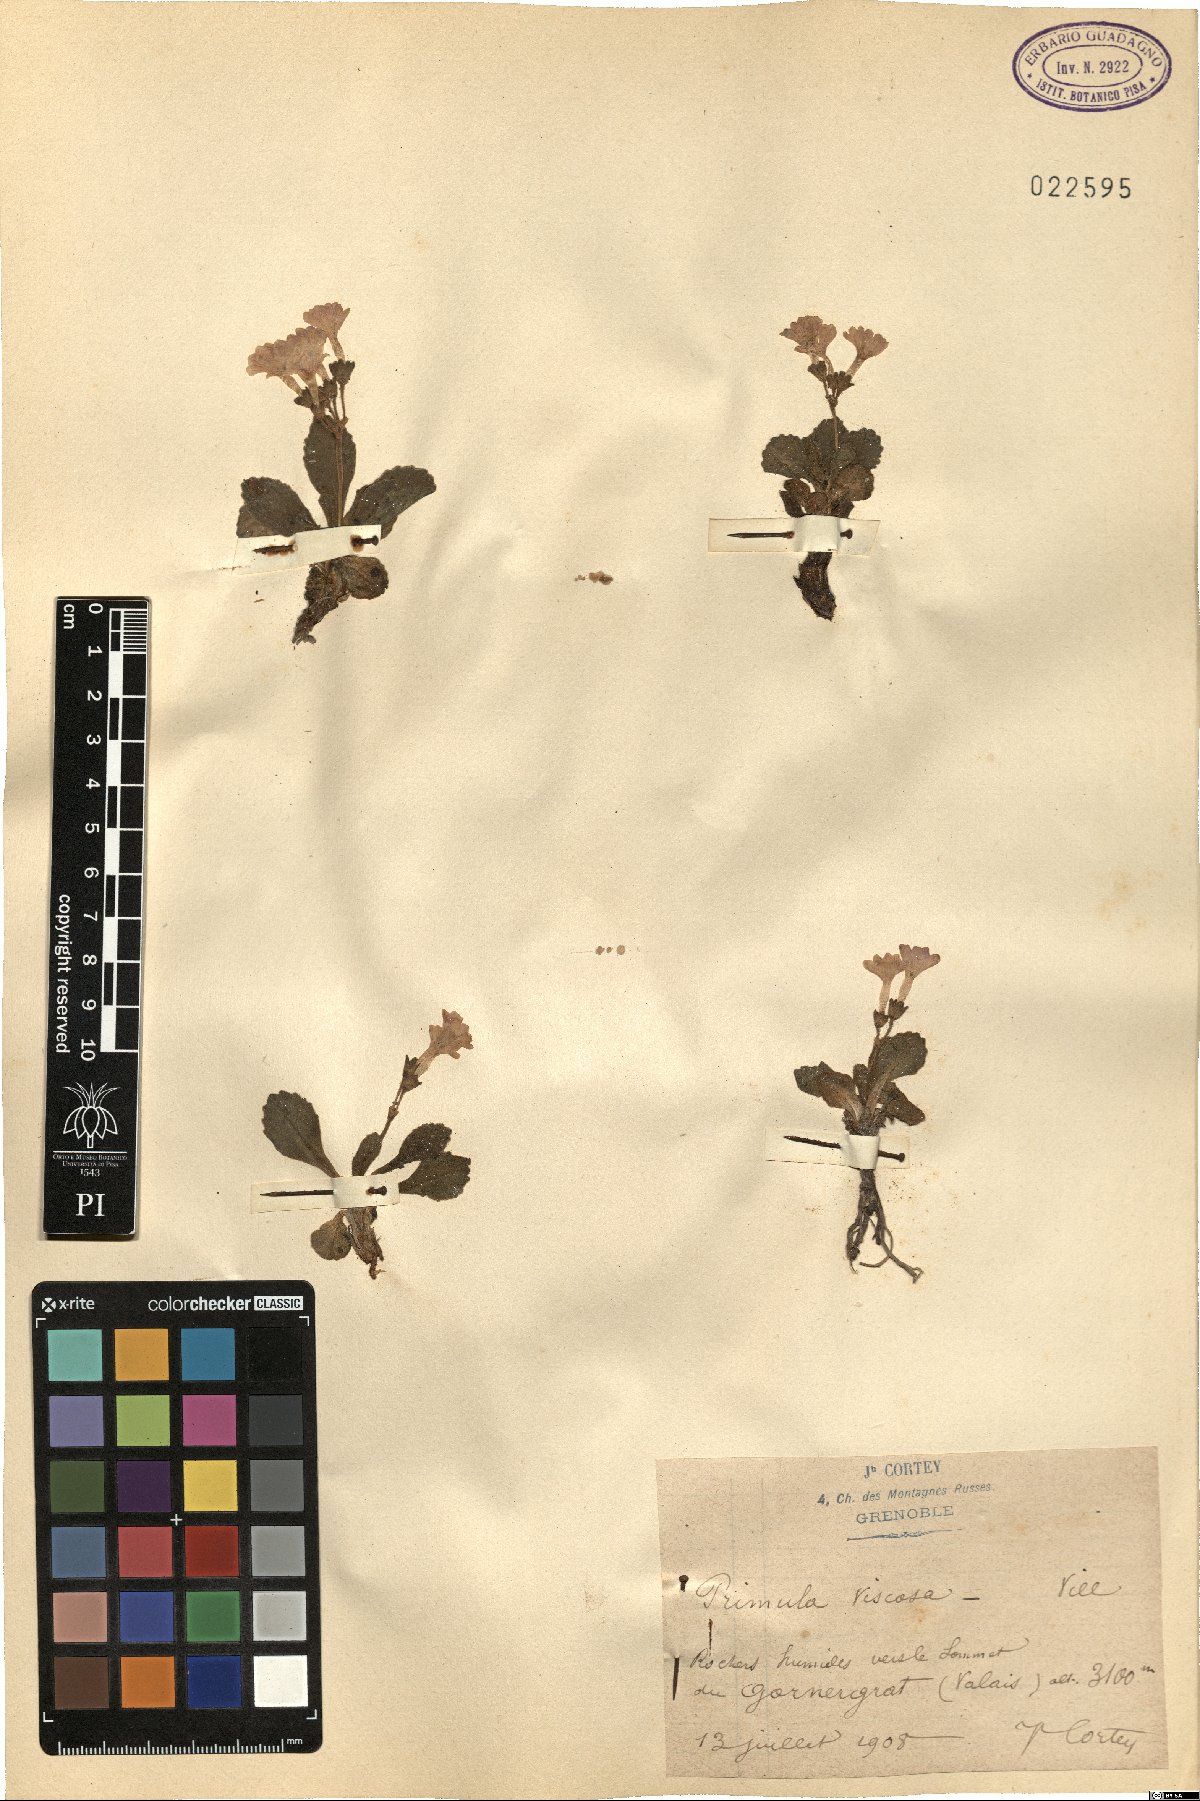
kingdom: Plantae
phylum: Tracheophyta
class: Magnoliopsida
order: Ericales
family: Primulaceae
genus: Primula
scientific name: Primula latifolia
